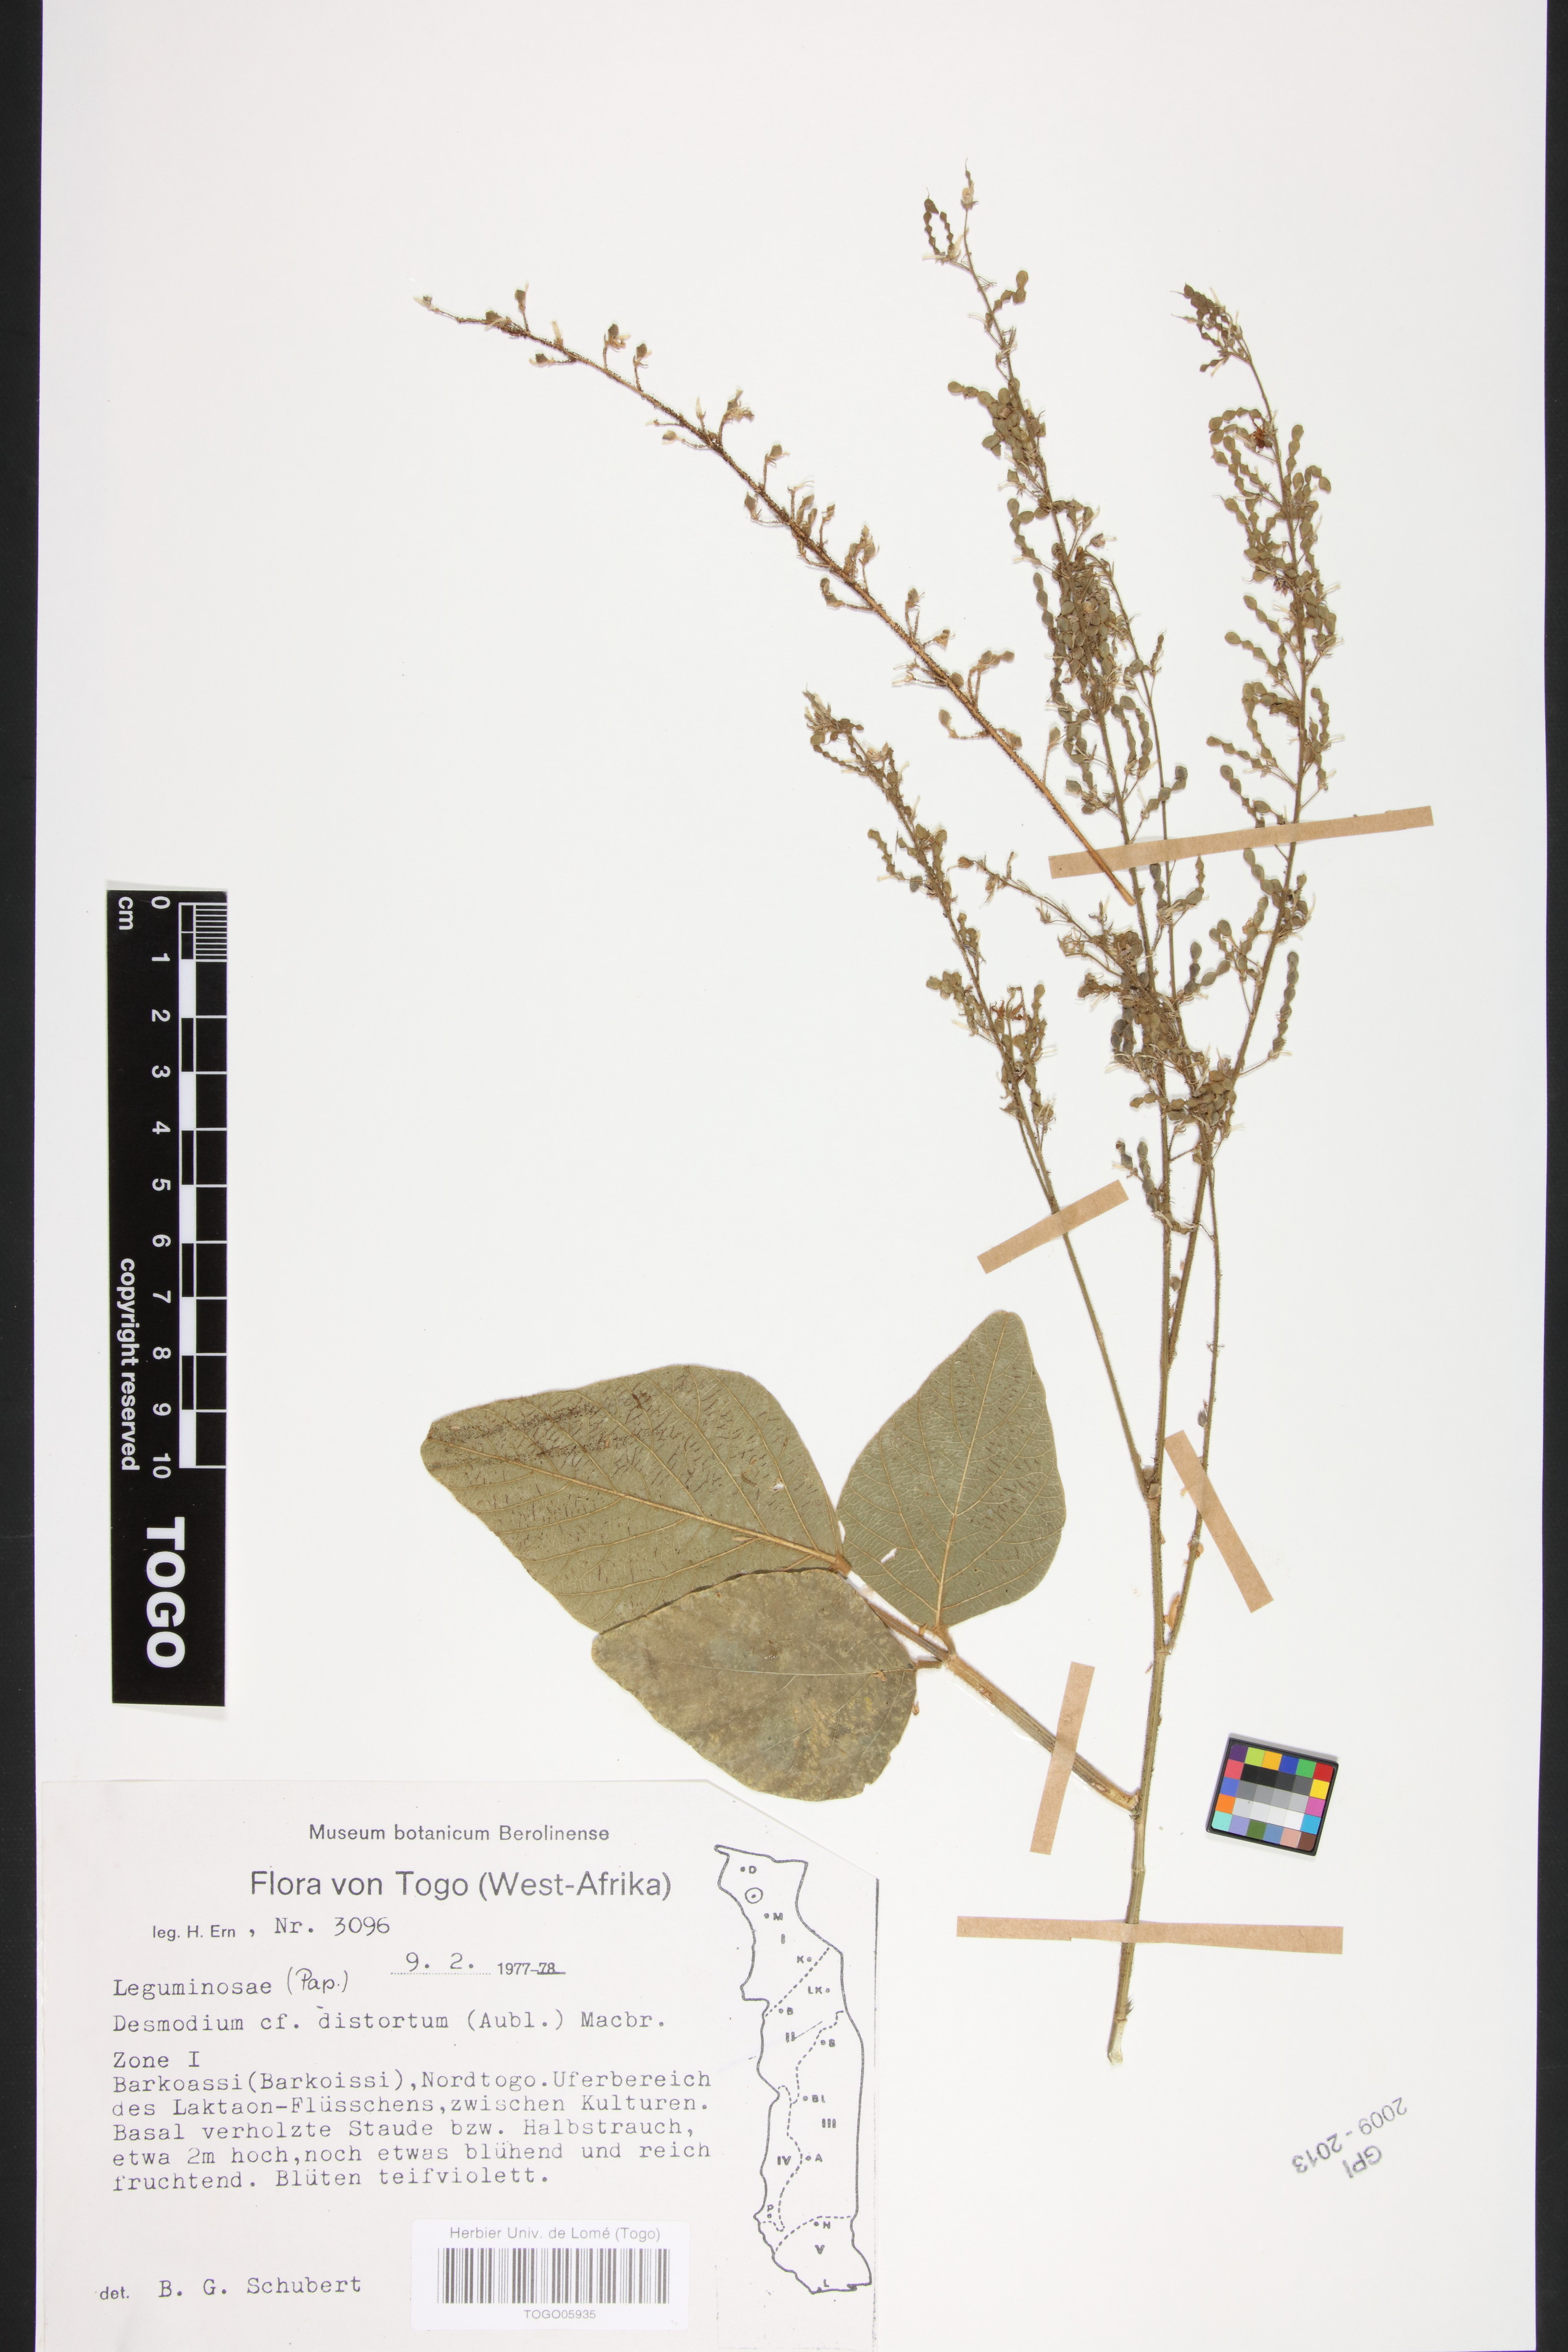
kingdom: Plantae
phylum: Tracheophyta
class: Magnoliopsida
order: Fabales
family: Fabaceae
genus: Desmodium
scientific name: Desmodium distortum
